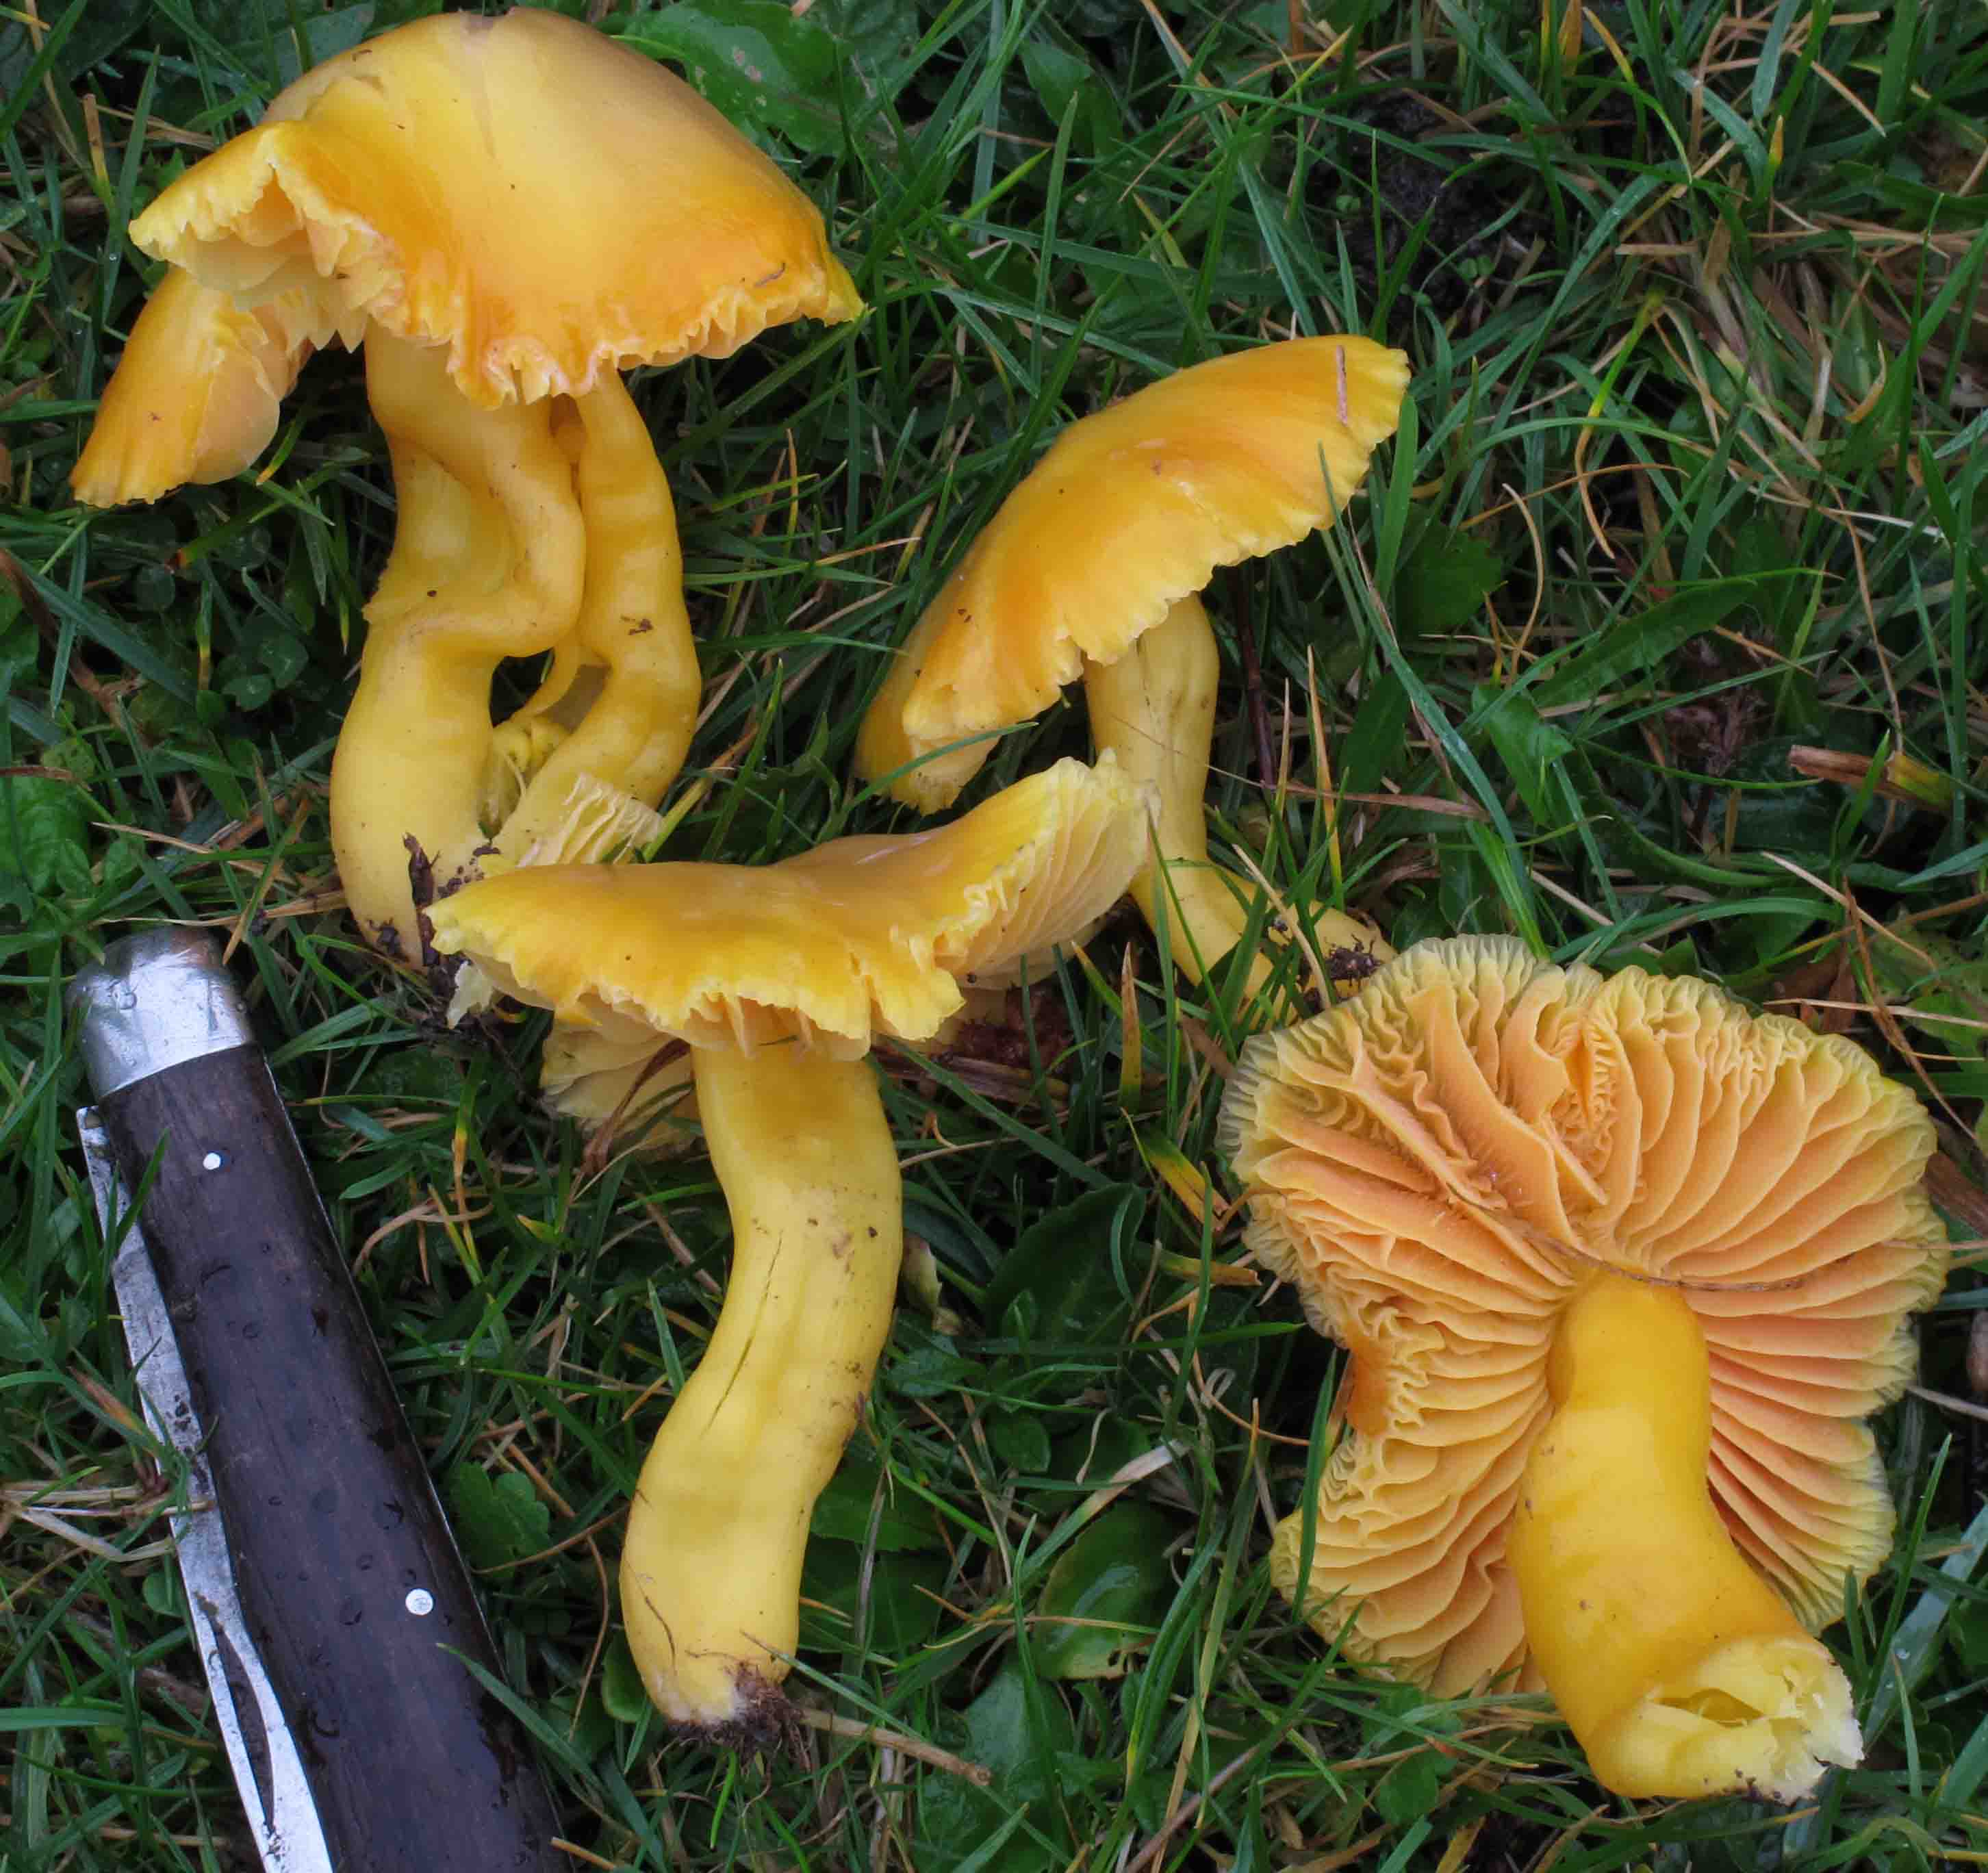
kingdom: Fungi
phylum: Basidiomycota
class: Agaricomycetes
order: Agaricales
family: Hygrophoraceae
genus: Hygrocybe
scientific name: Hygrocybe quieta
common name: tæge-vokshat
